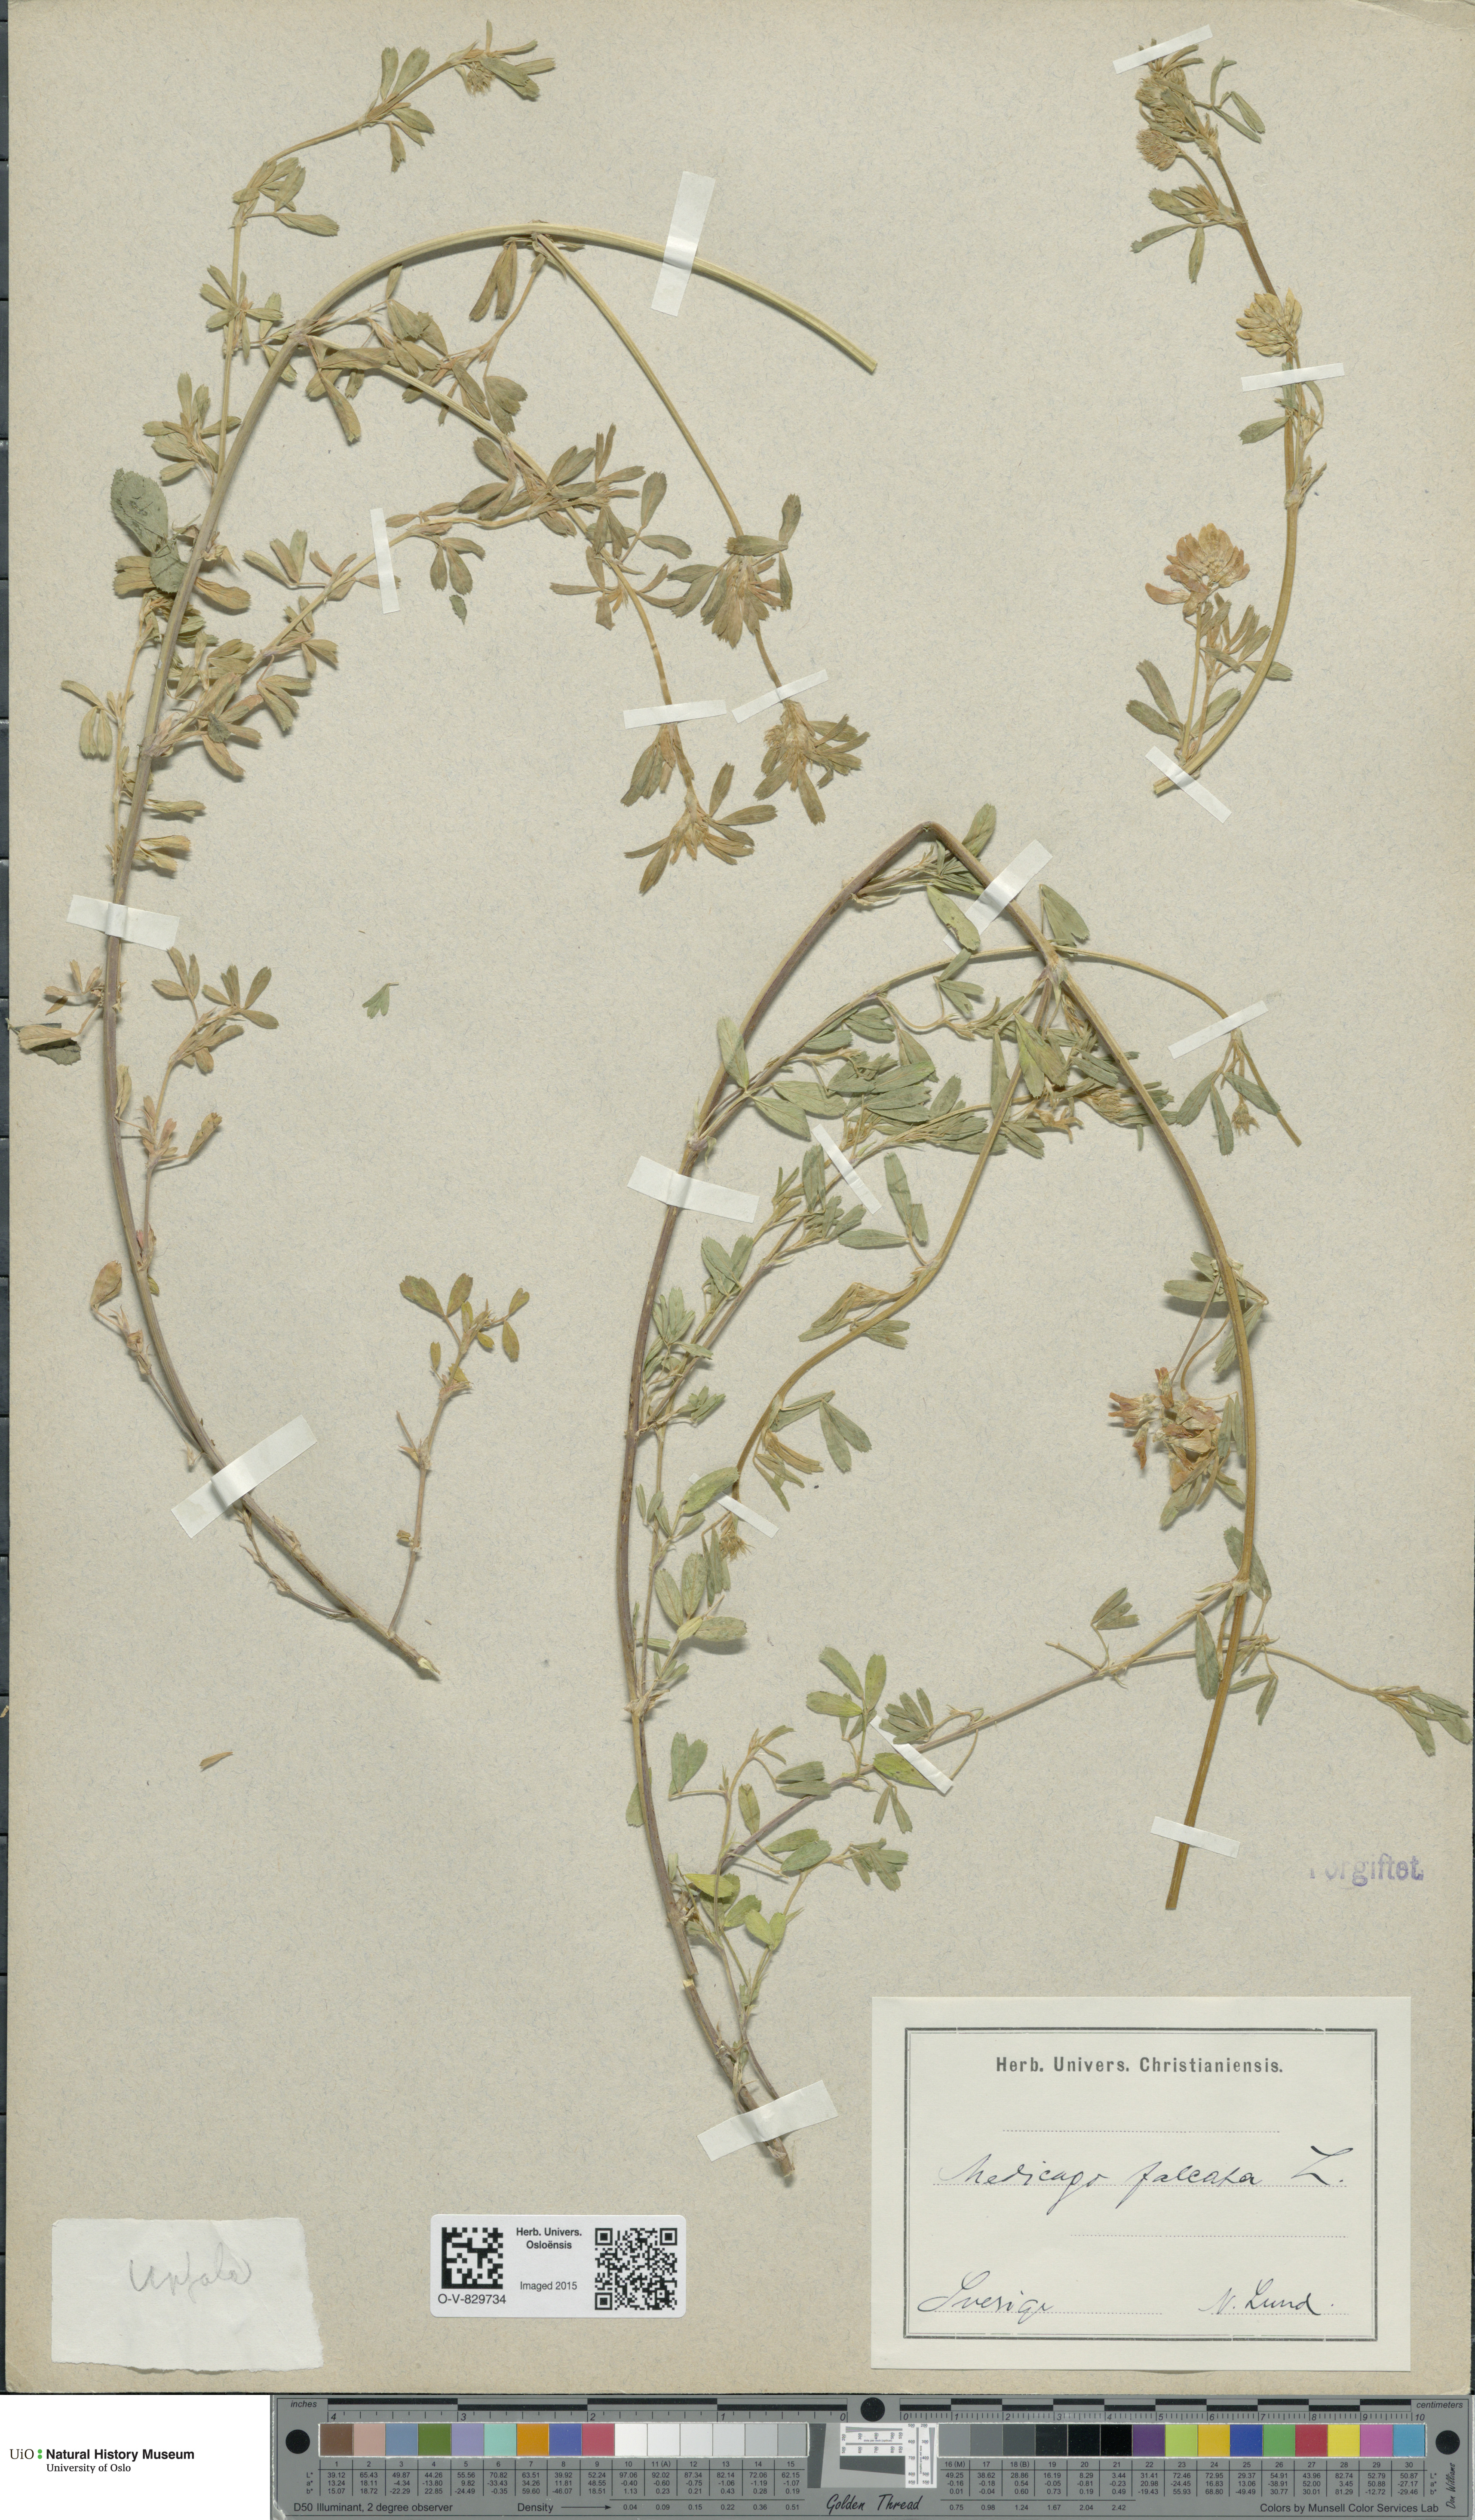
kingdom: Plantae
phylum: Tracheophyta
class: Magnoliopsida
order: Fabales
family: Fabaceae
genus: Medicago
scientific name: Medicago falcata
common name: Sickle medick
